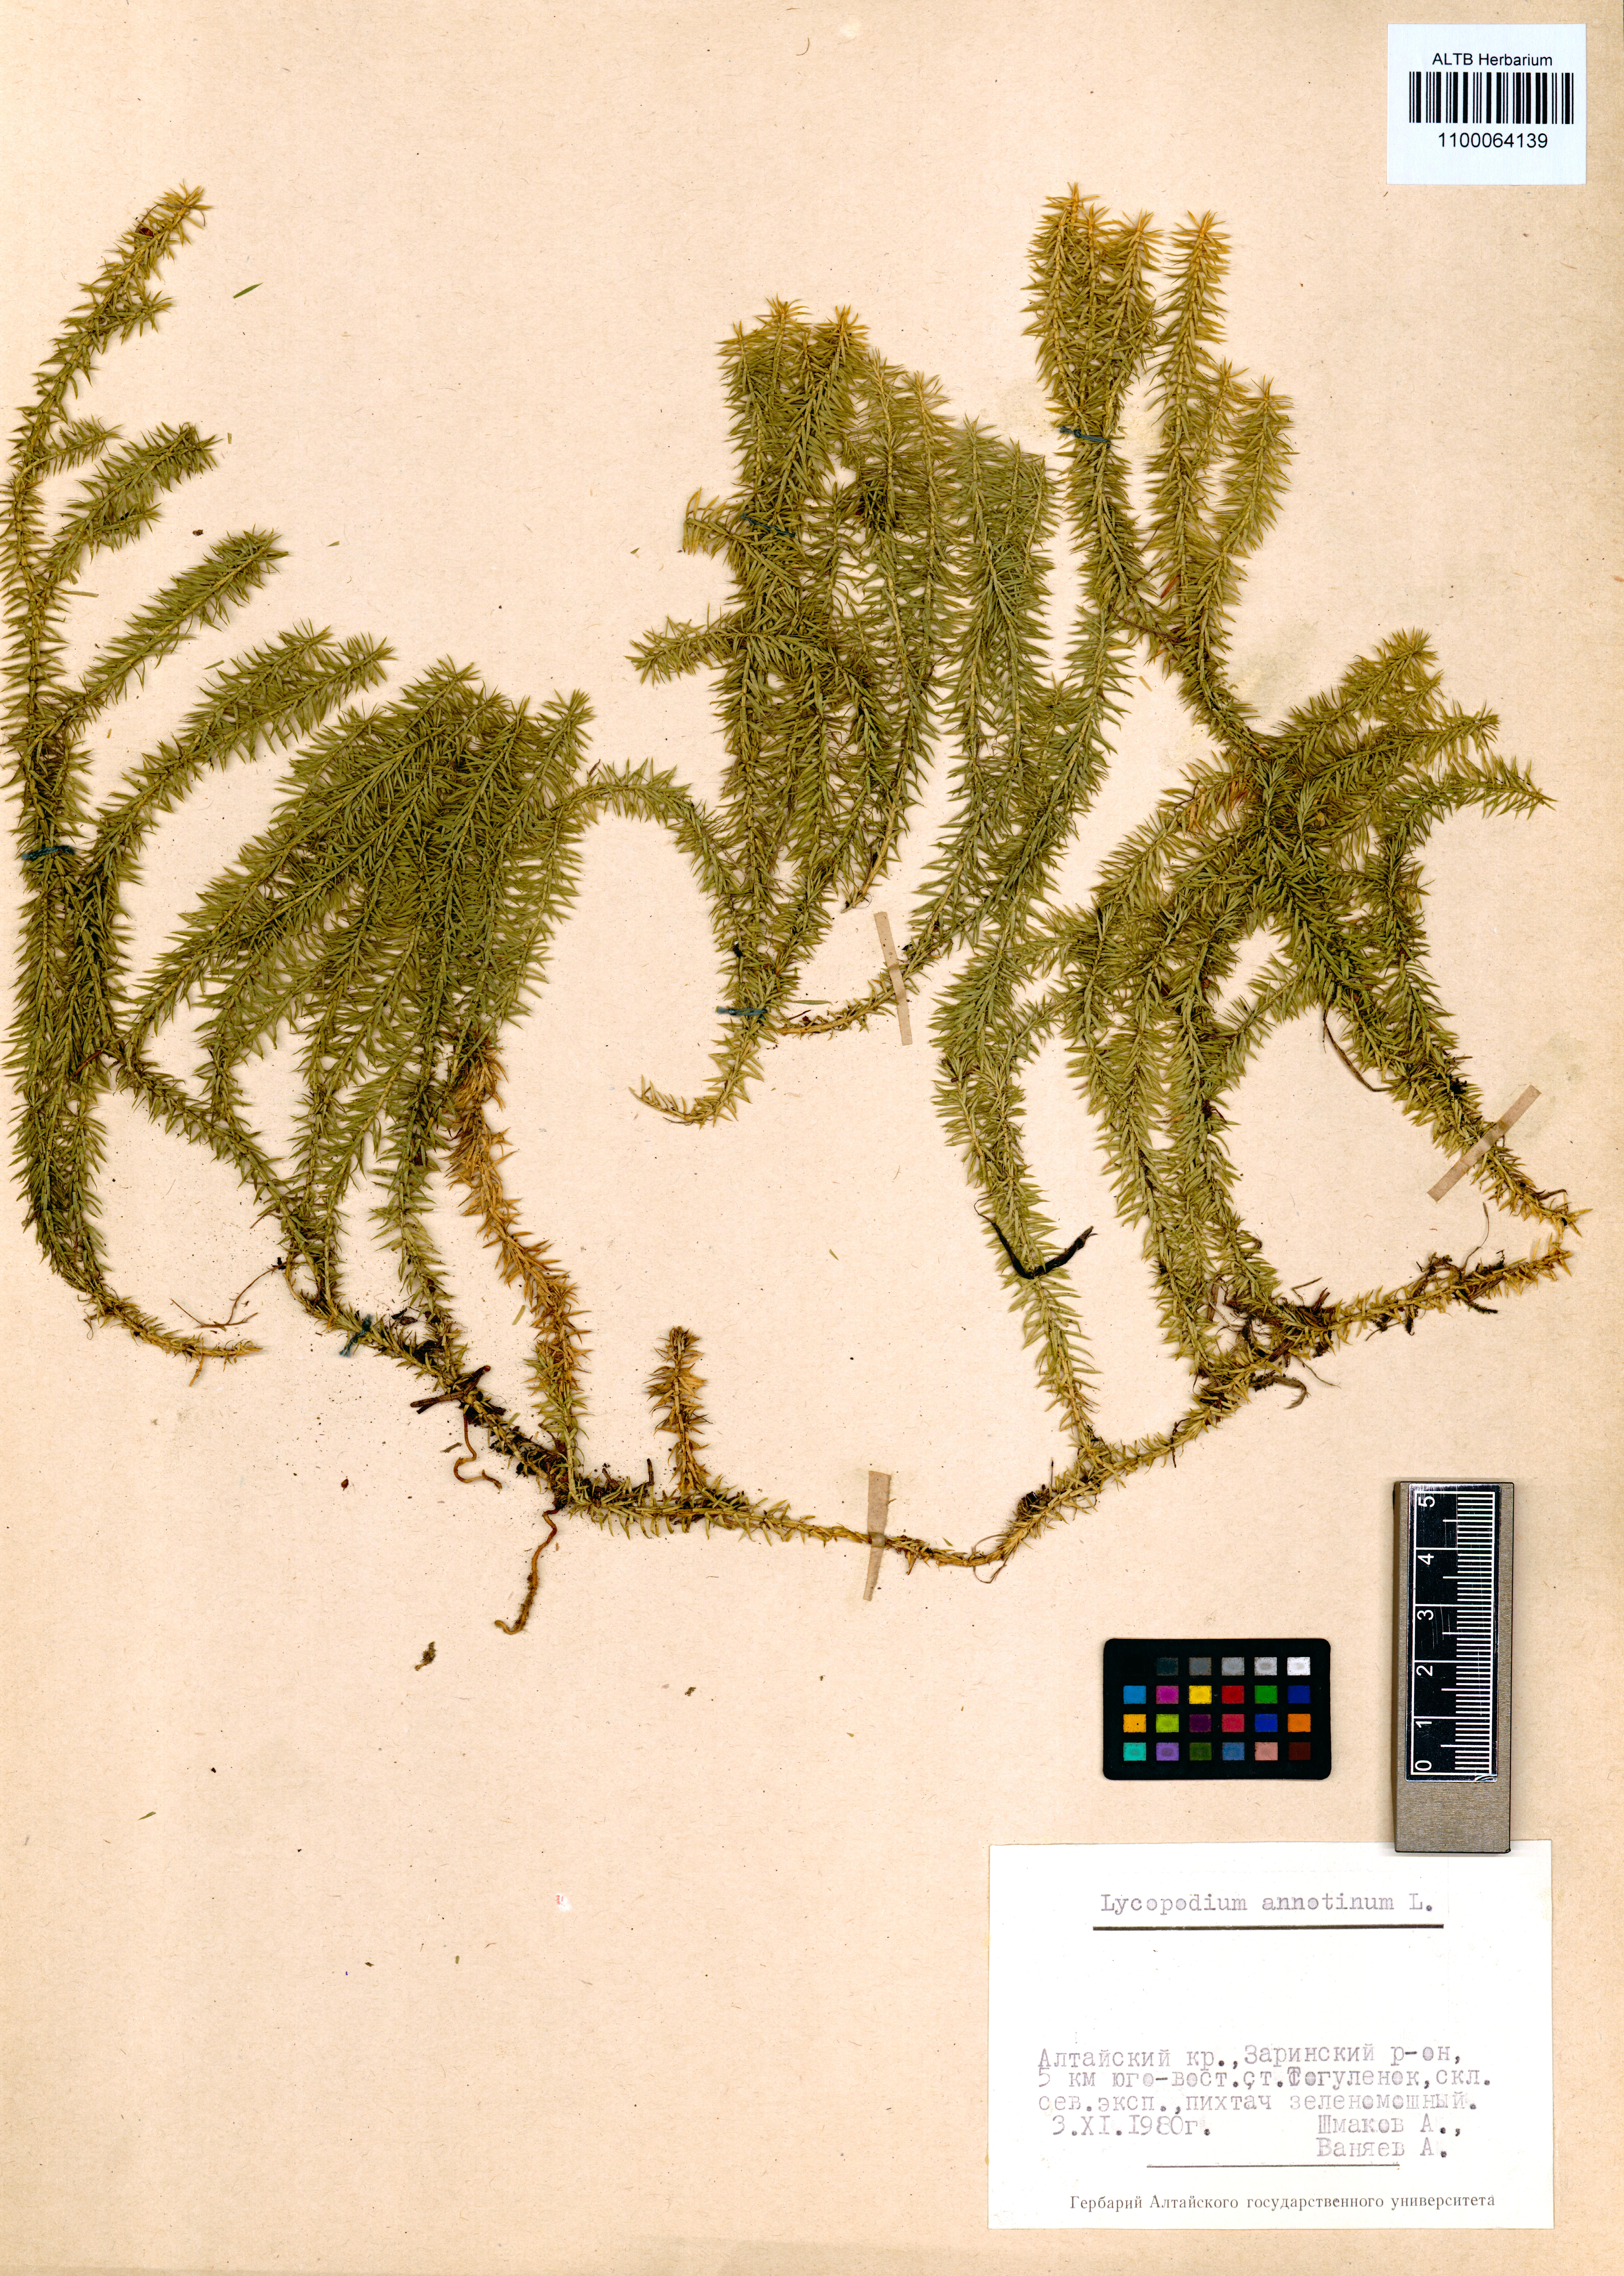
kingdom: Plantae
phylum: Tracheophyta
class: Lycopodiopsida
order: Lycopodiales
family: Lycopodiaceae
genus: Spinulum
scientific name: Spinulum annotinum
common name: Interrupted club-moss
